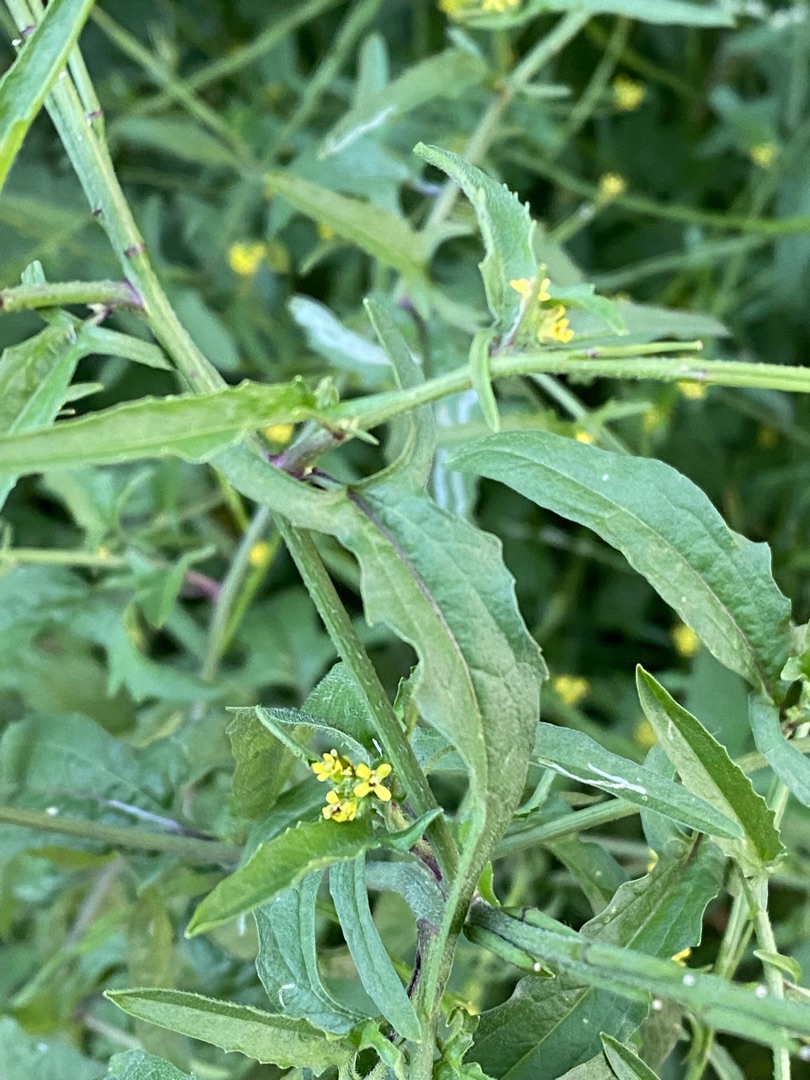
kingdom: Plantae
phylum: Tracheophyta
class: Magnoliopsida
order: Brassicales
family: Brassicaceae
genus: Sisymbrium
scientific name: Sisymbrium officinale
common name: Rank vejsennep
